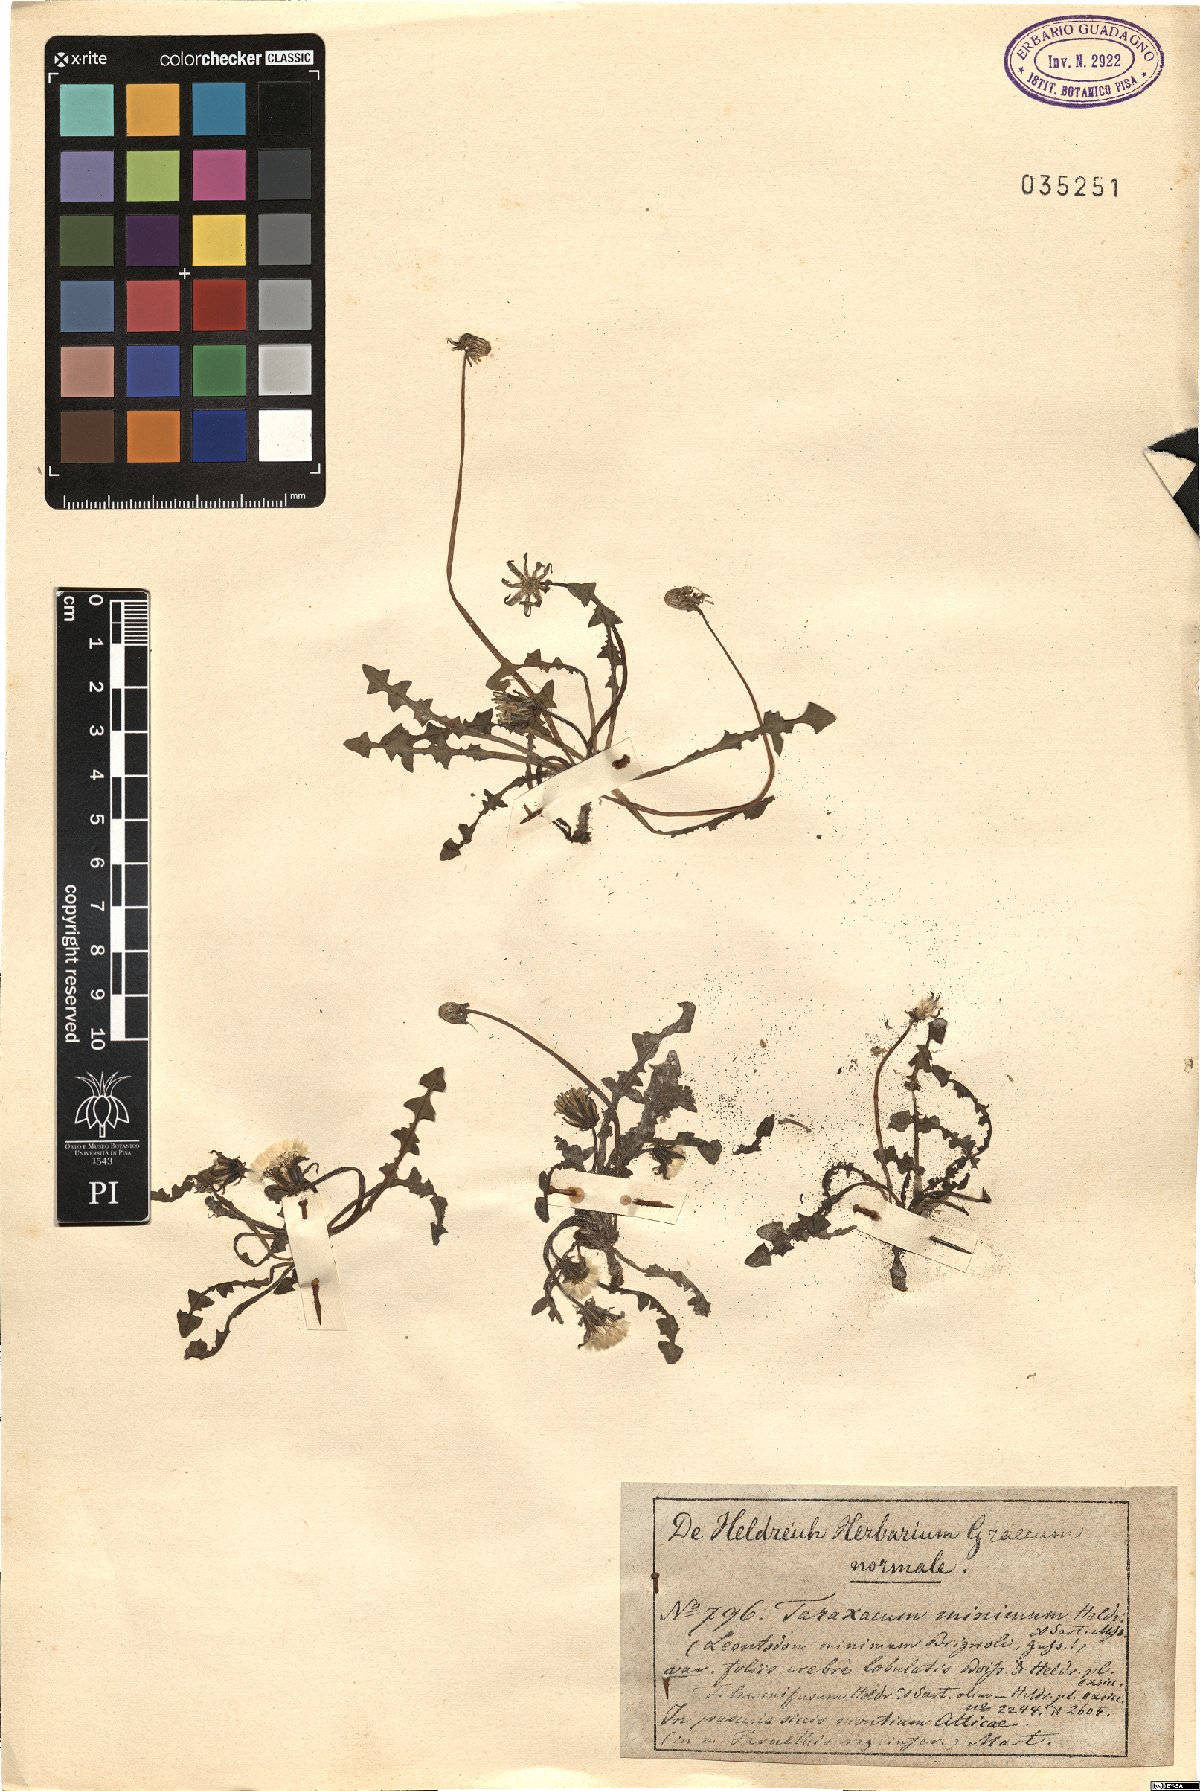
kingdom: Plantae
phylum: Tracheophyta
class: Magnoliopsida
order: Asterales
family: Asteraceae
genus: Taraxacum
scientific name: Taraxacum megalorhizon
